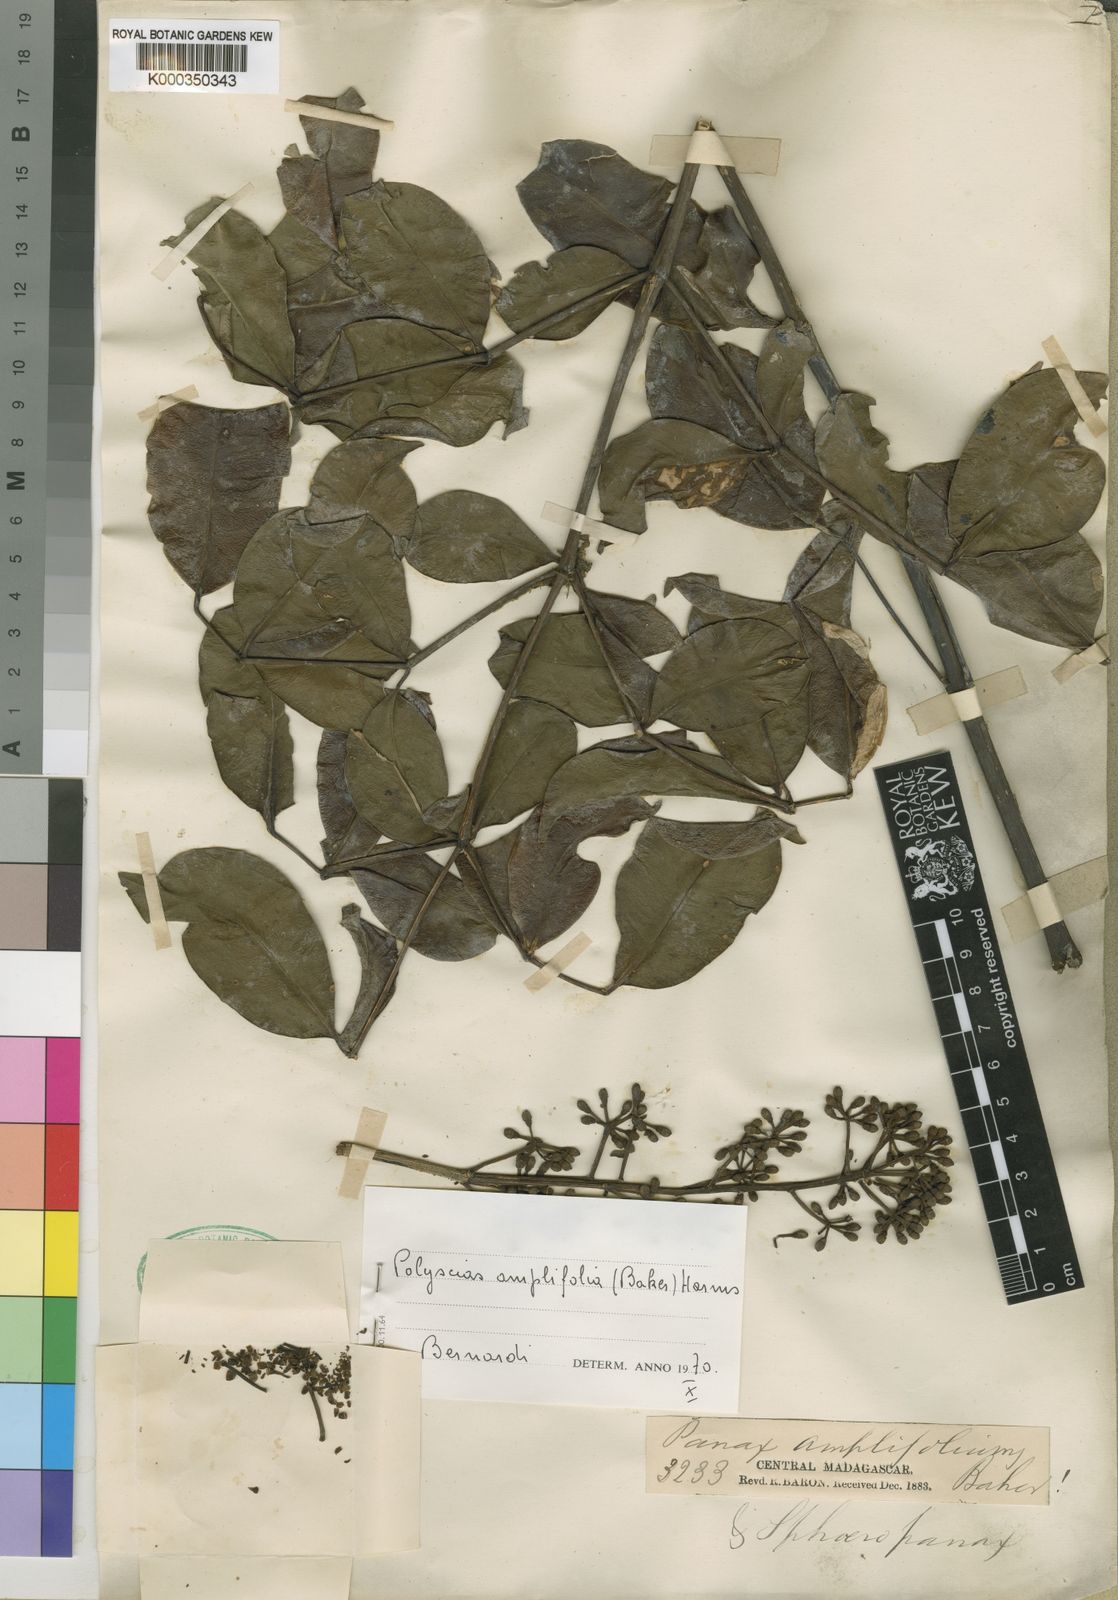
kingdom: Plantae
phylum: Tracheophyta
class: Magnoliopsida
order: Apiales
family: Araliaceae
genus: Polyscias
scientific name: Polyscias amplifolia
